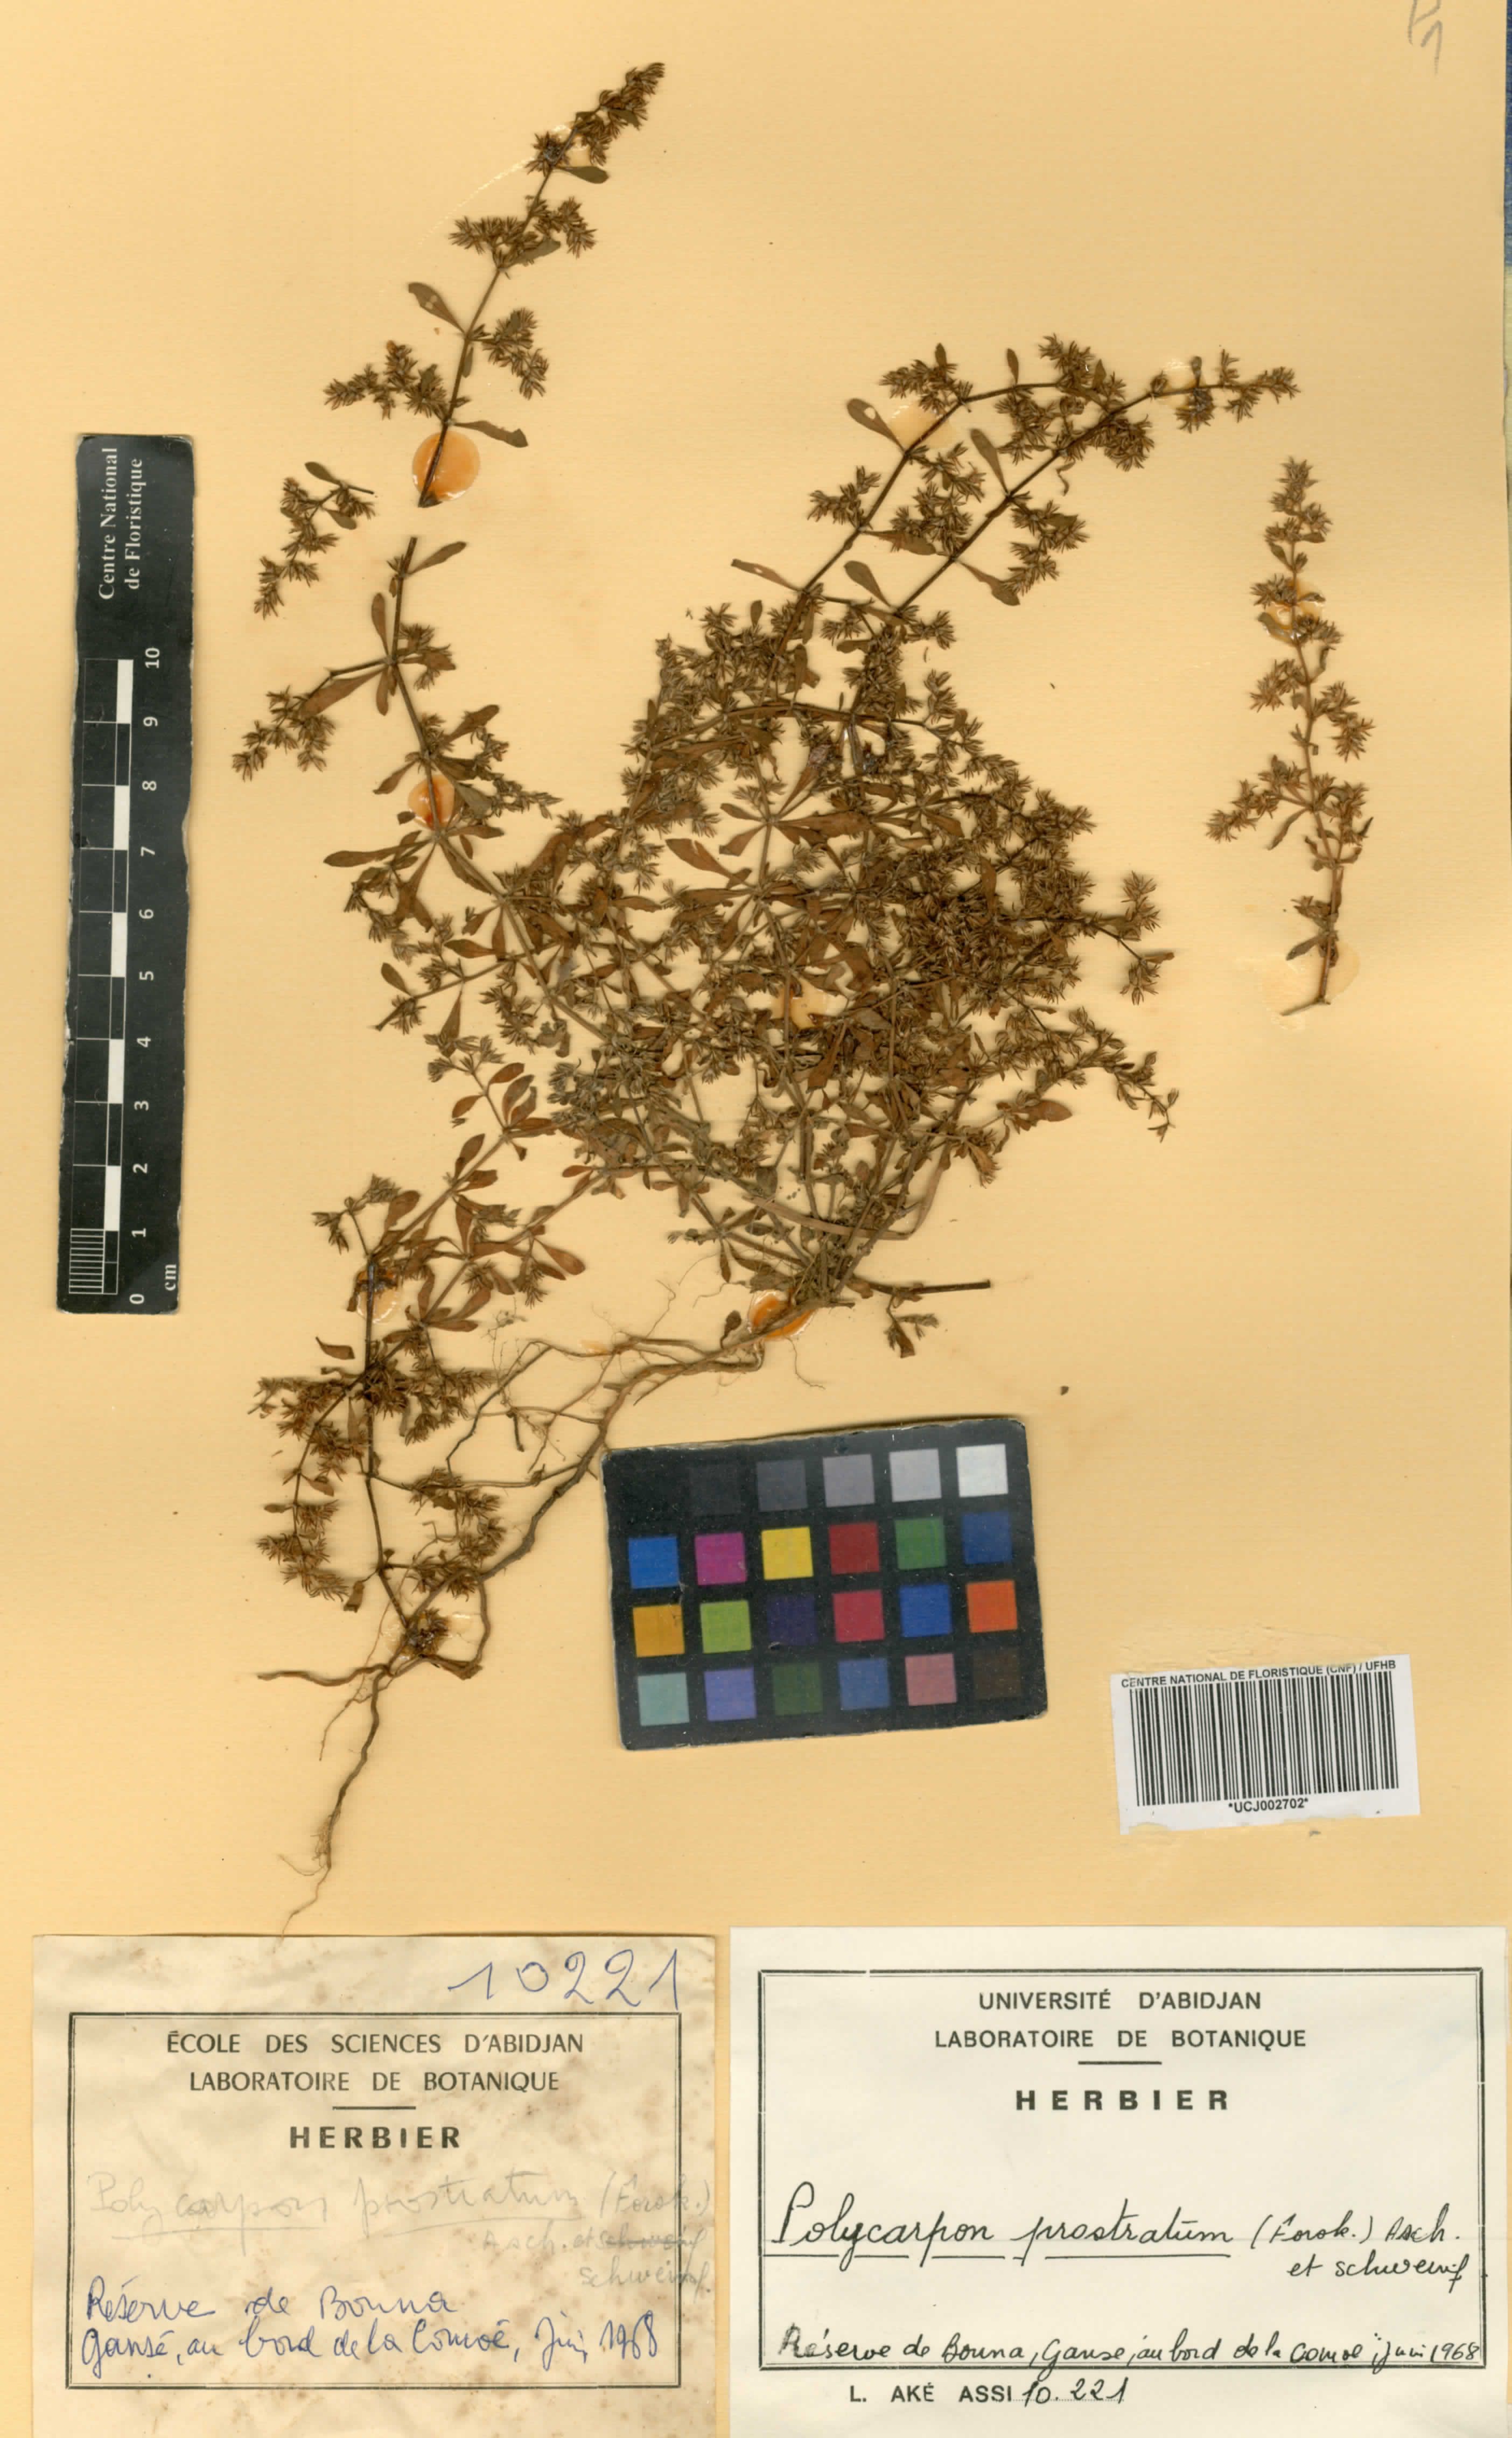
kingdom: Plantae
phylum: Tracheophyta
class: Magnoliopsida
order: Caryophyllales
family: Caryophyllaceae
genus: Polycarpon
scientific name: Polycarpon prostratum
